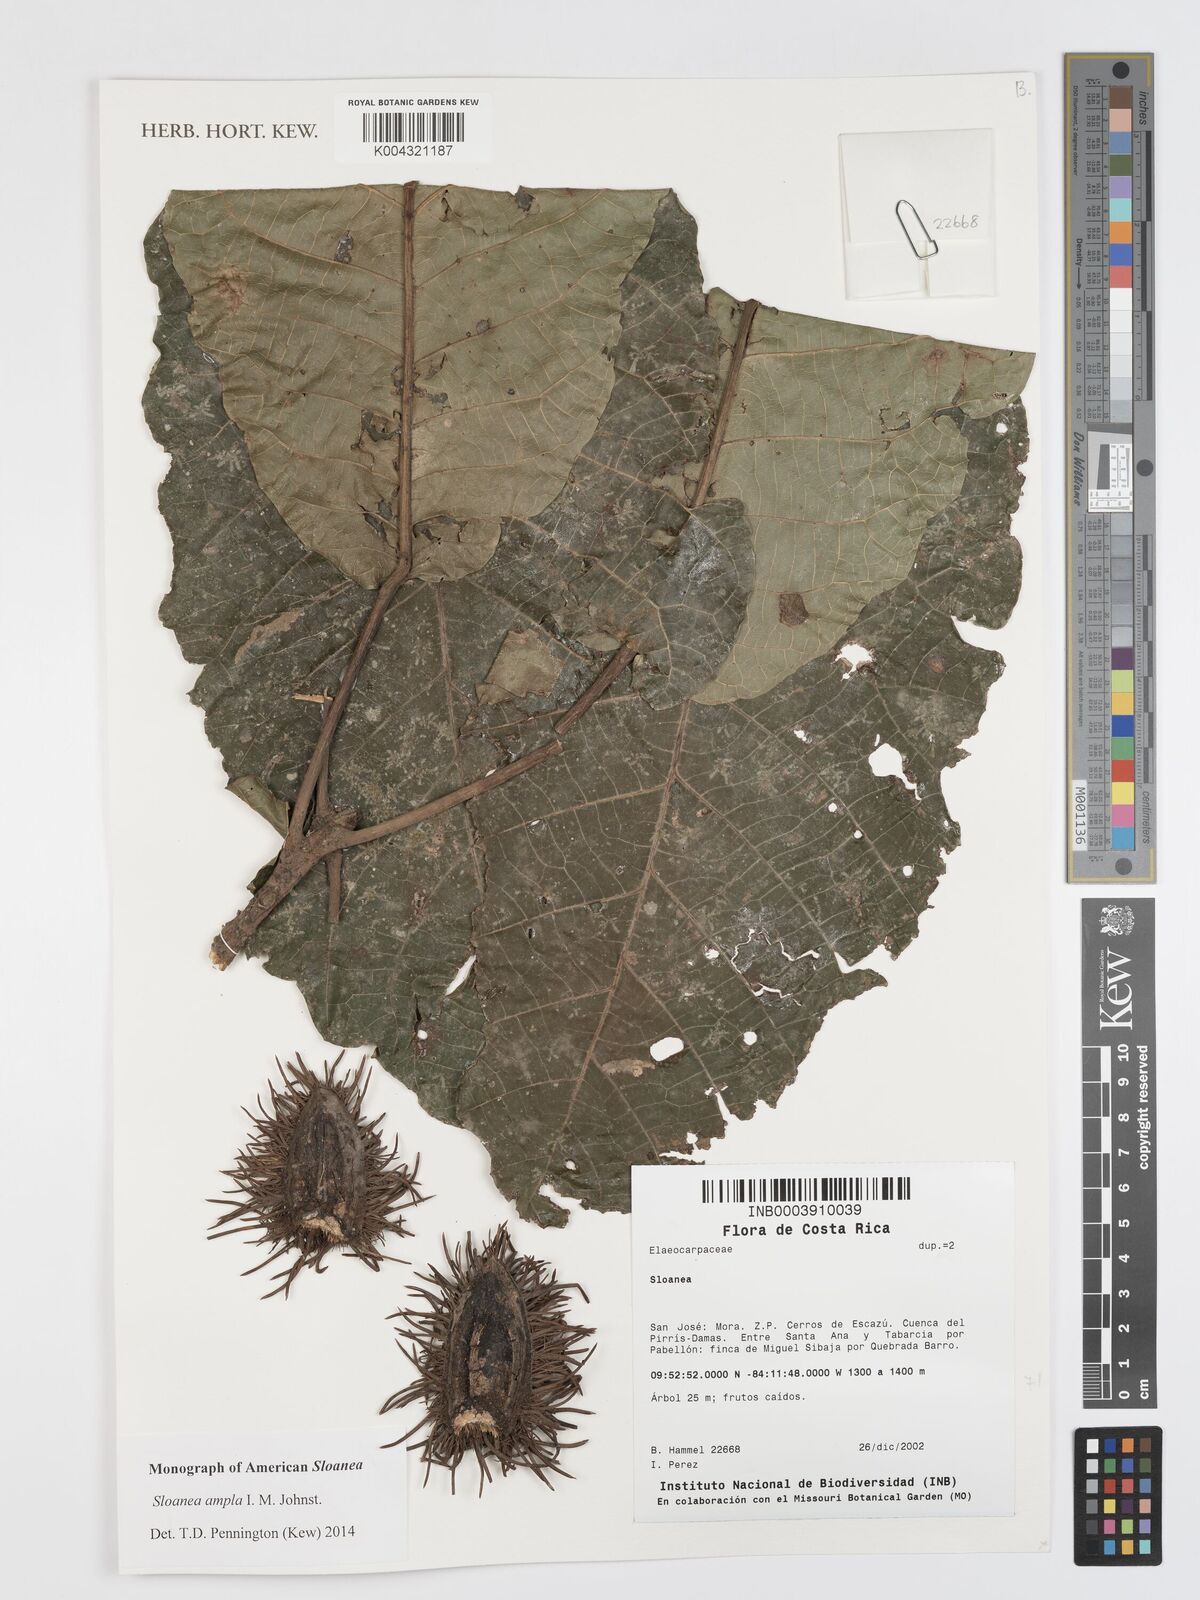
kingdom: Plantae
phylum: Tracheophyta
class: Magnoliopsida
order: Oxalidales
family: Elaeocarpaceae
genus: Sloanea
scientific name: Sloanea ampla
